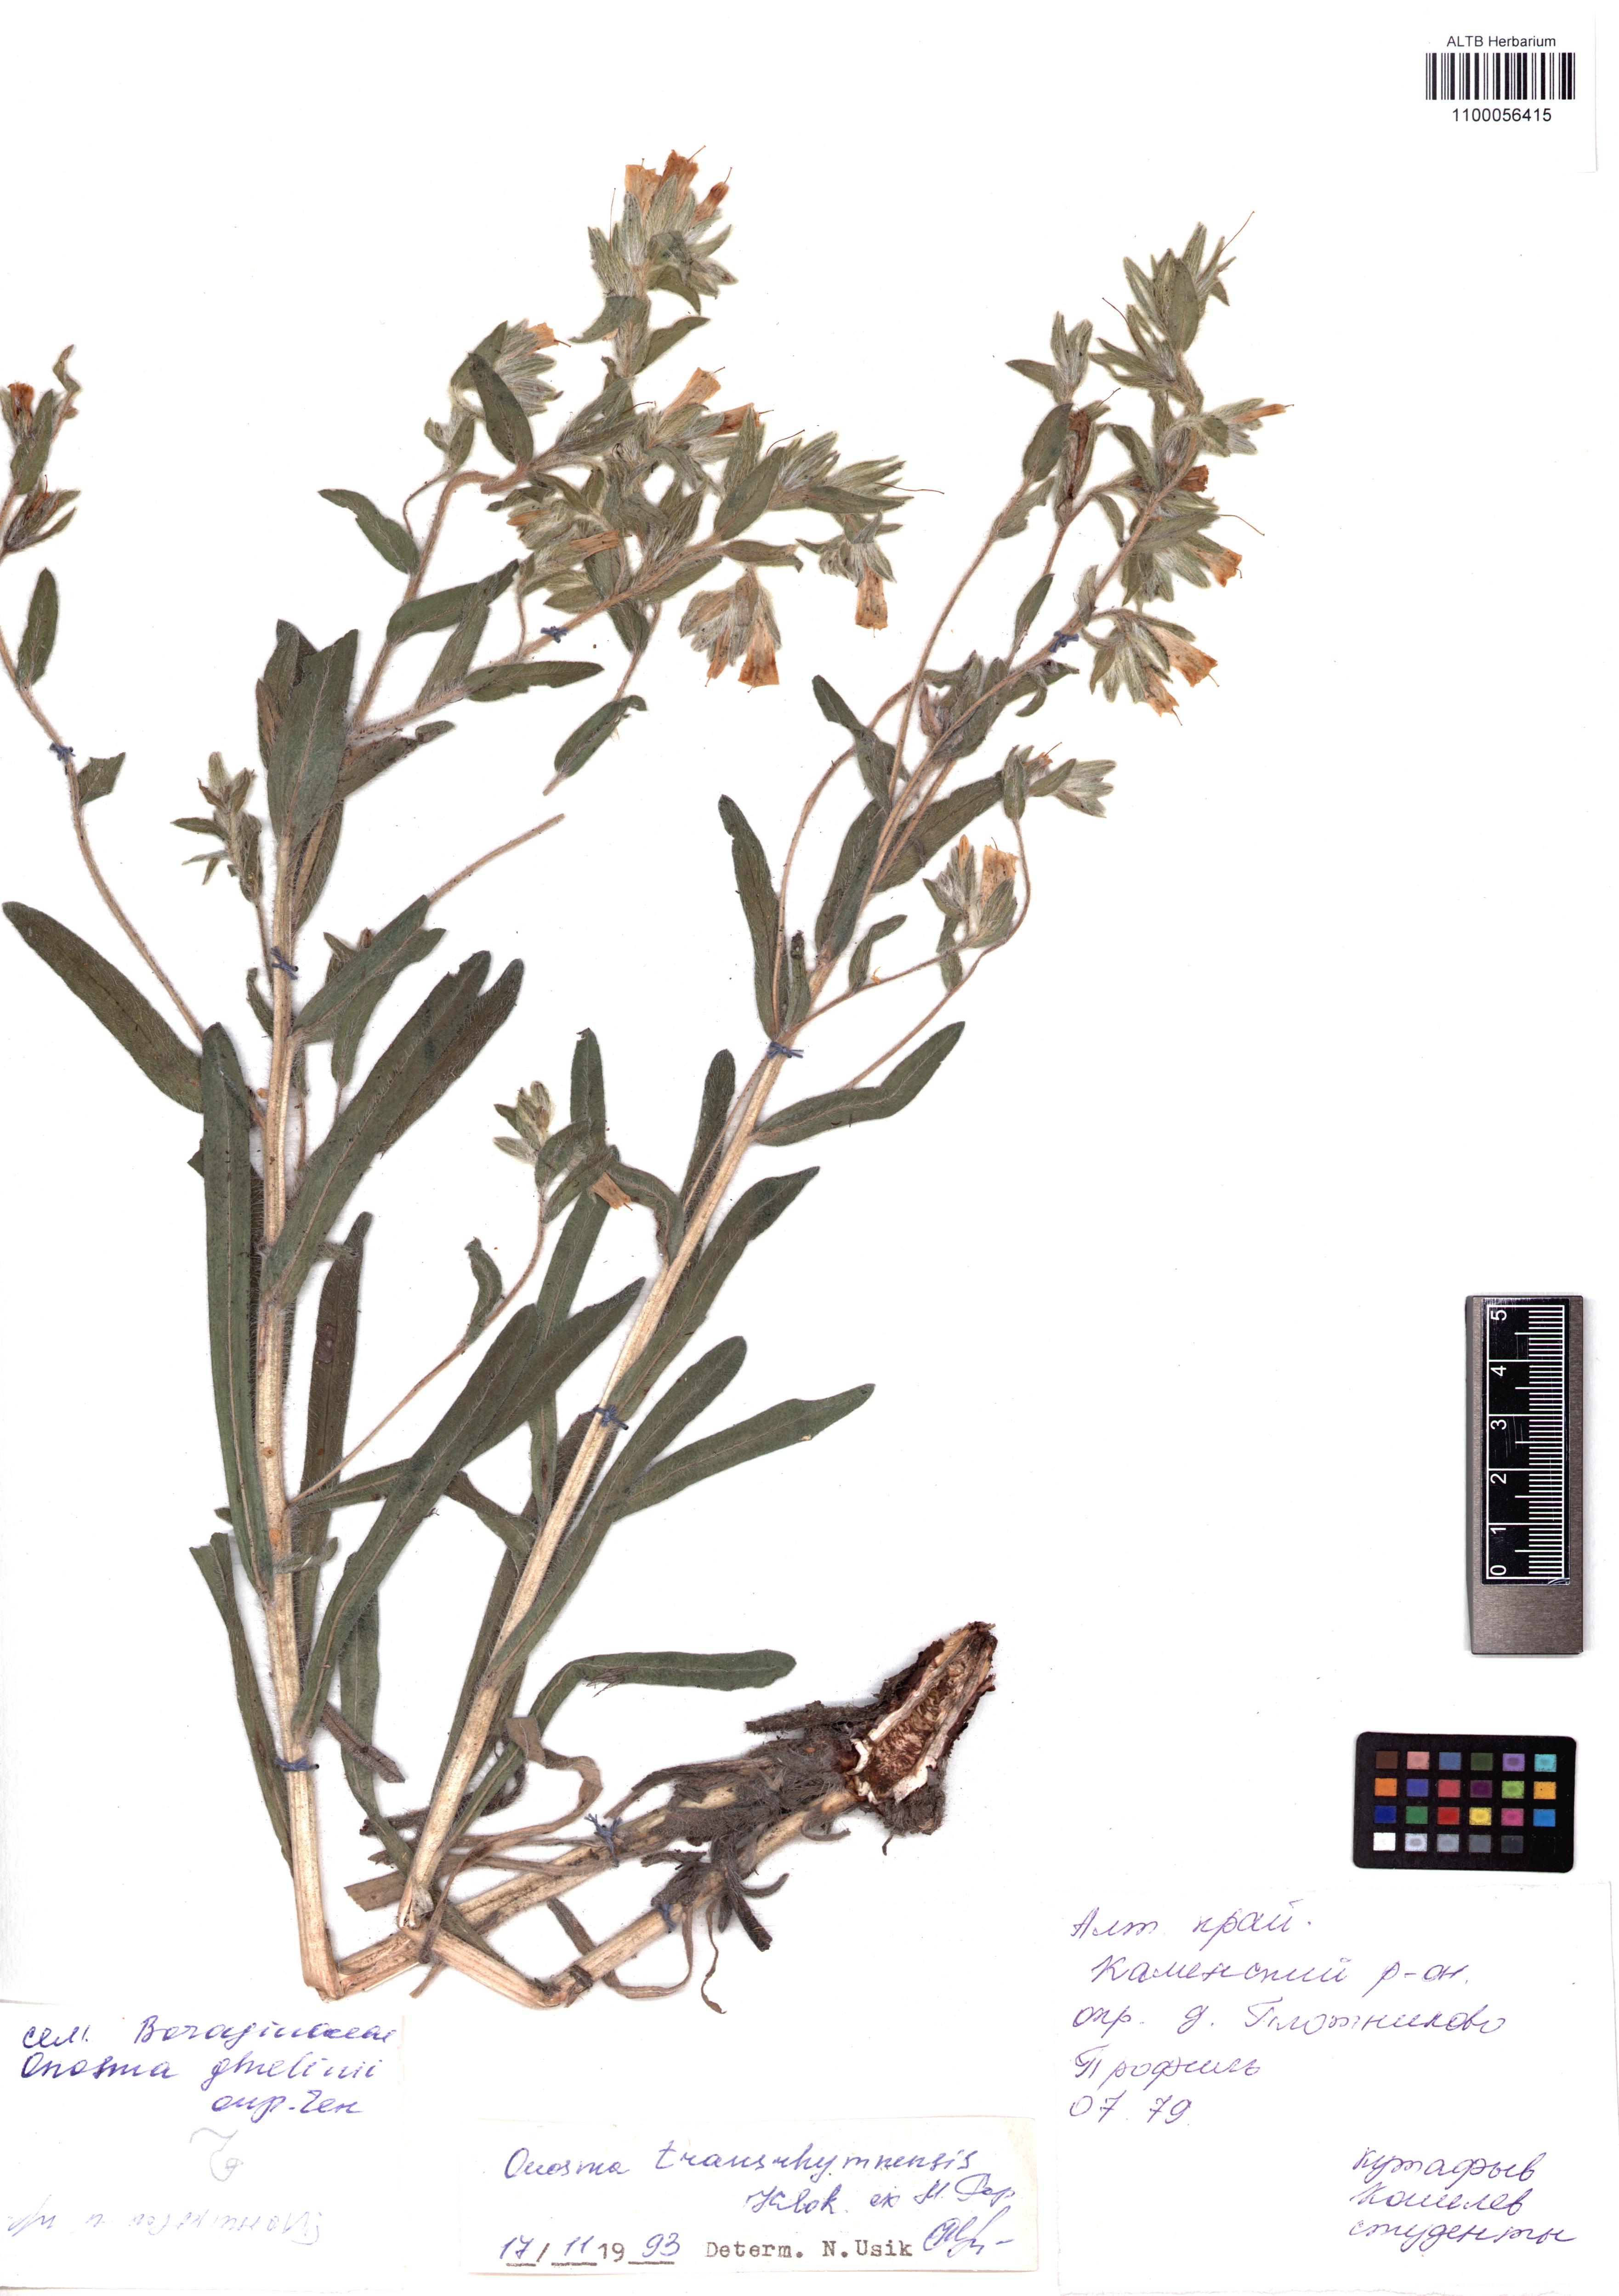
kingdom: Plantae
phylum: Tracheophyta
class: Magnoliopsida
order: Boraginales
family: Boraginaceae
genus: Onosma
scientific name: Onosma transrhymnensis
